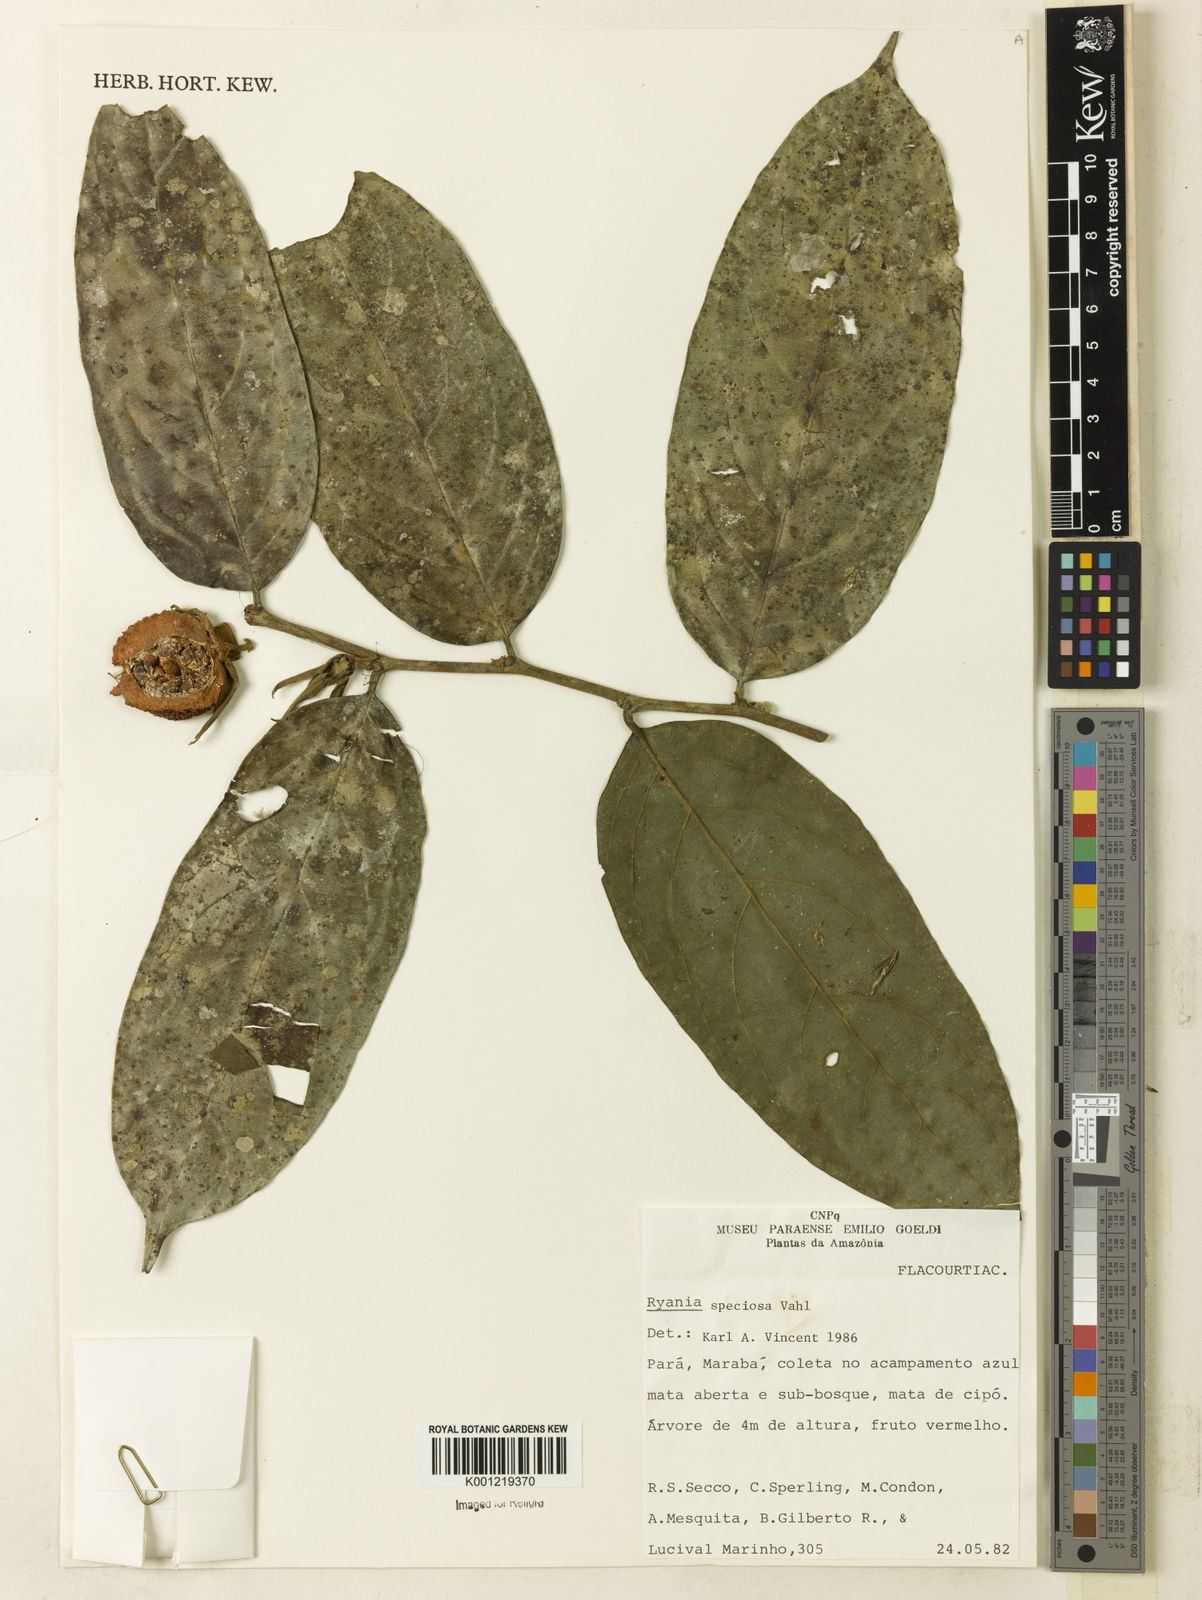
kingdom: Plantae
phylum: Tracheophyta
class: Magnoliopsida
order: Malpighiales
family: Salicaceae
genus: Ryania
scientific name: Ryania speciosa
